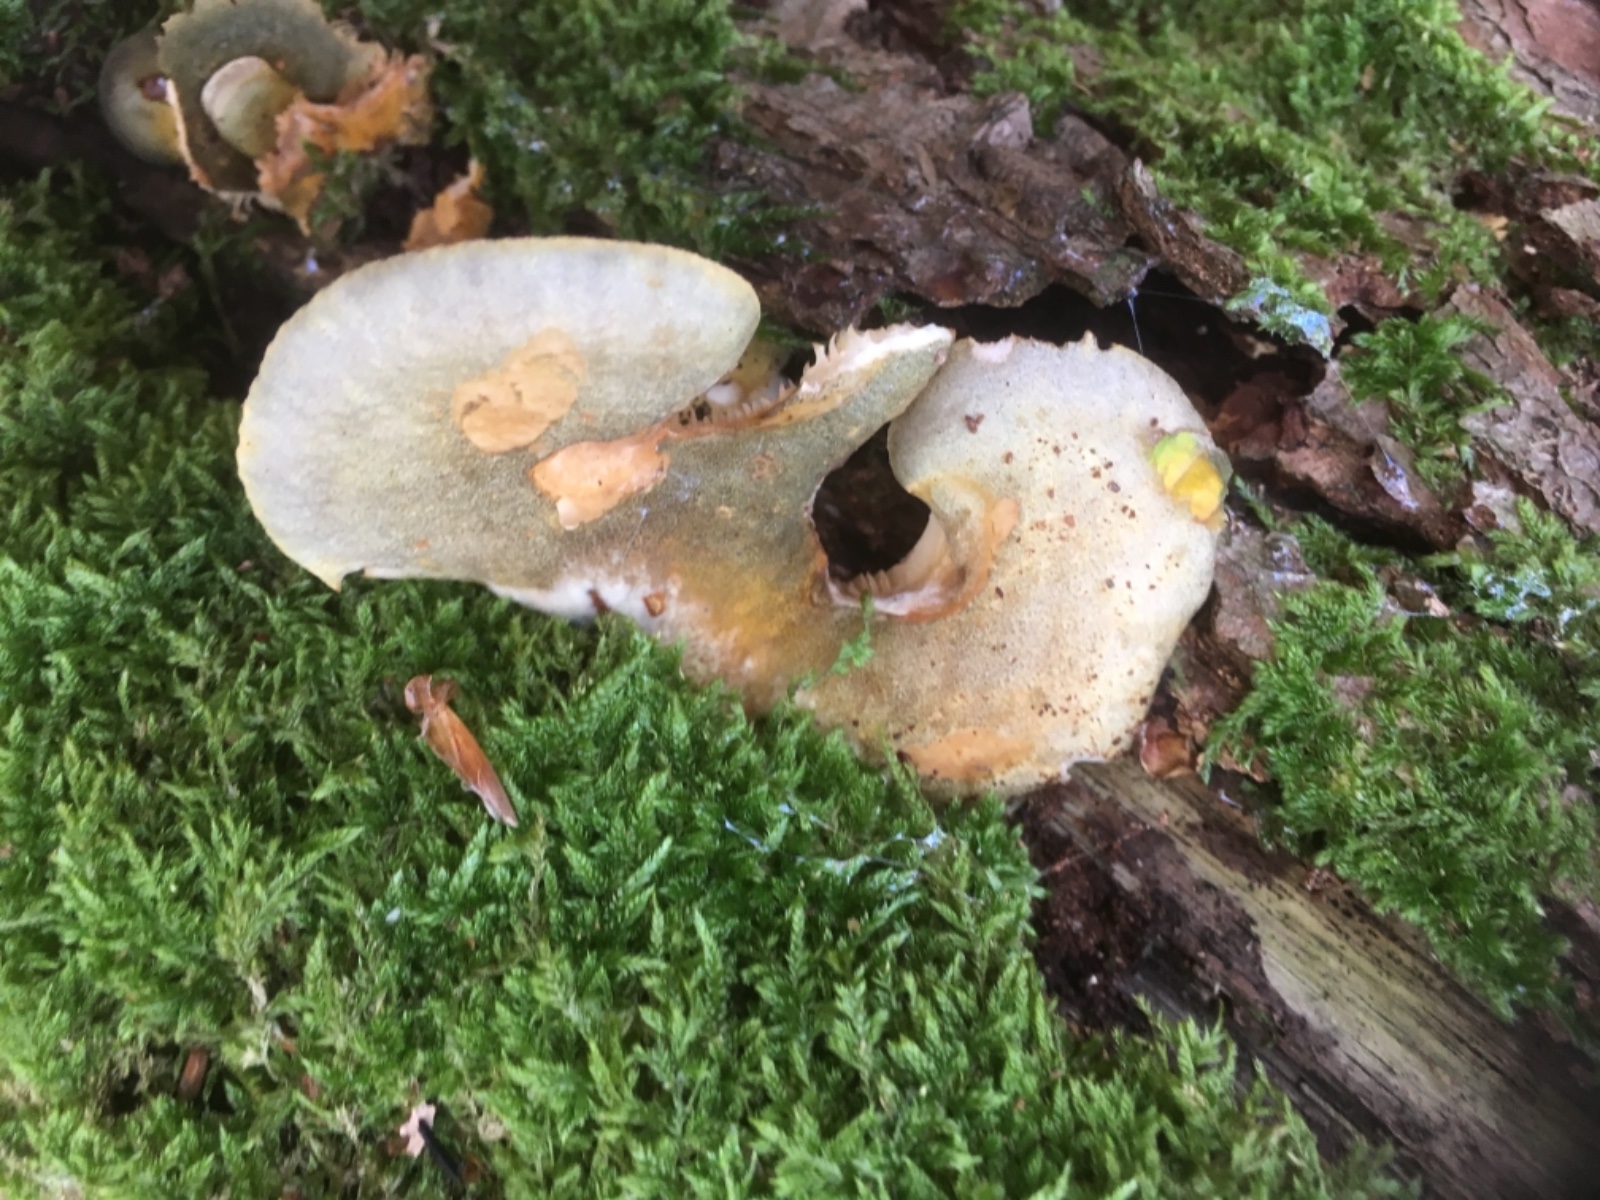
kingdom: Fungi
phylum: Basidiomycota
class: Agaricomycetes
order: Agaricales
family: Sarcomyxaceae
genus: Sarcomyxa
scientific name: Sarcomyxa serotina
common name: gummihat
